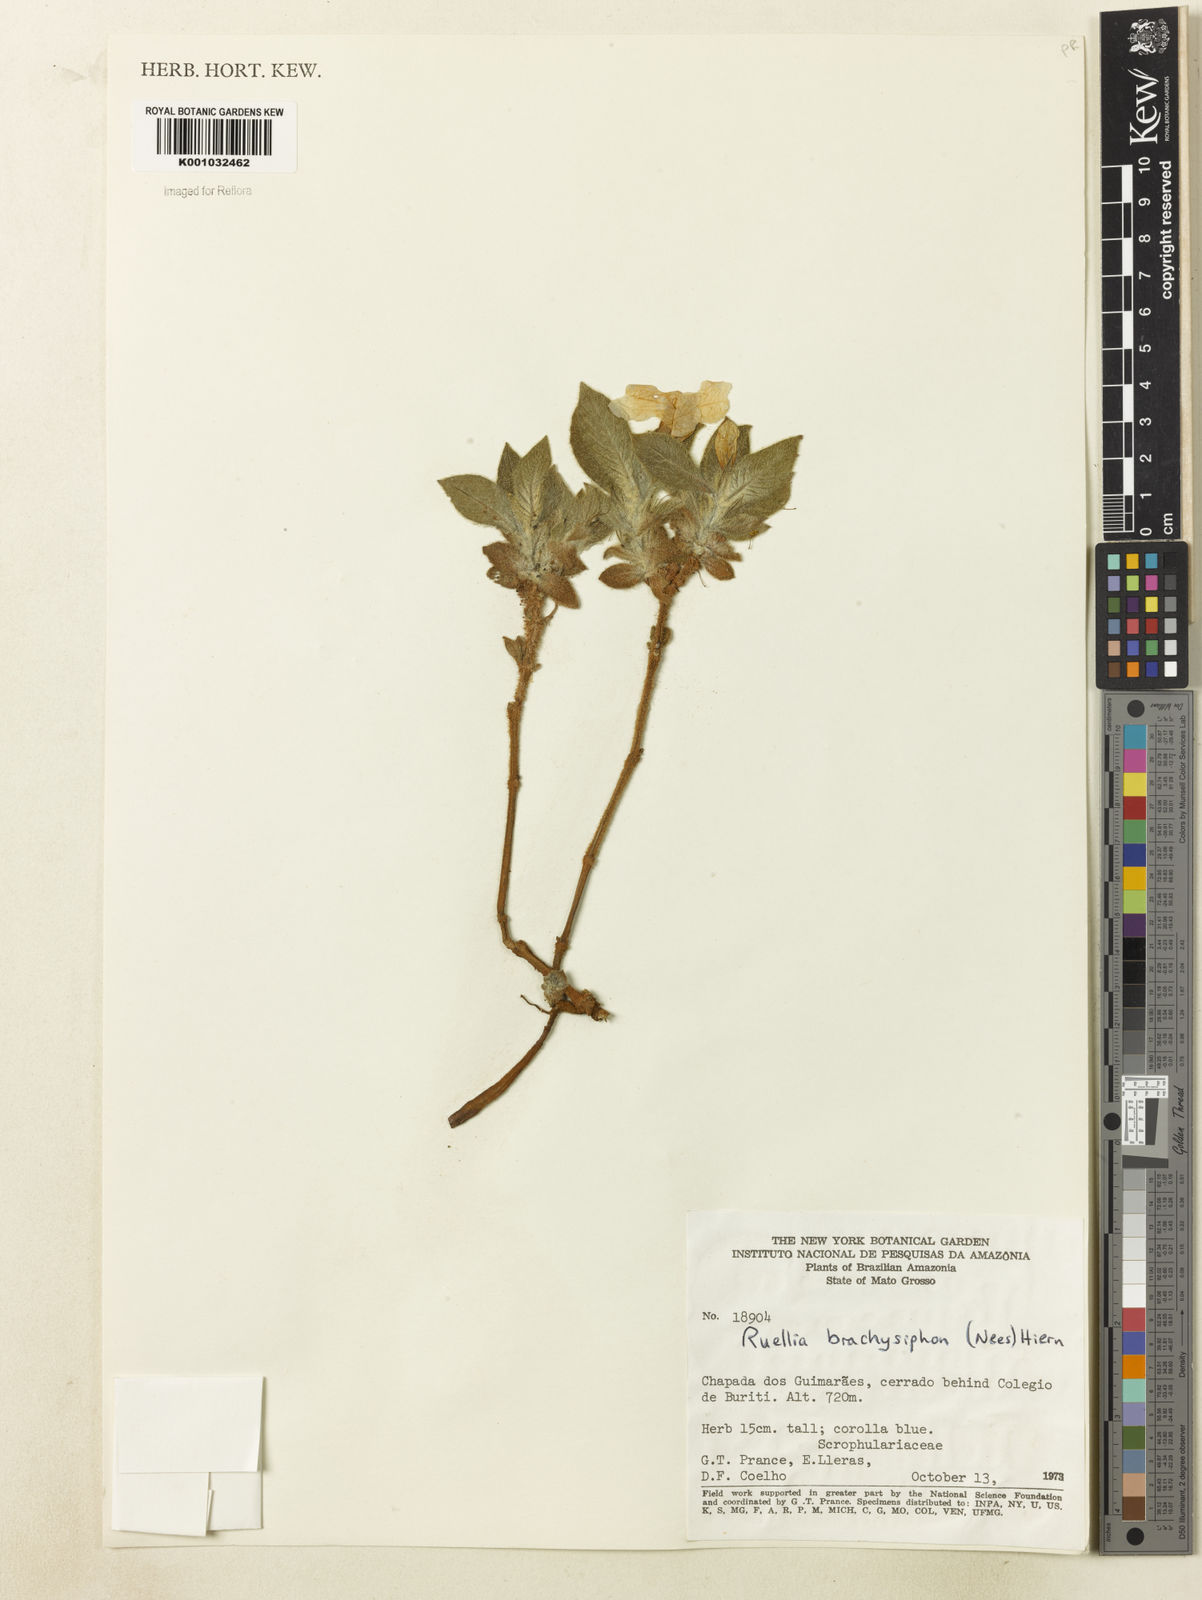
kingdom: Plantae
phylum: Tracheophyta
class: Magnoliopsida
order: Lamiales
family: Acanthaceae
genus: Ruellia
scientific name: Ruellia
